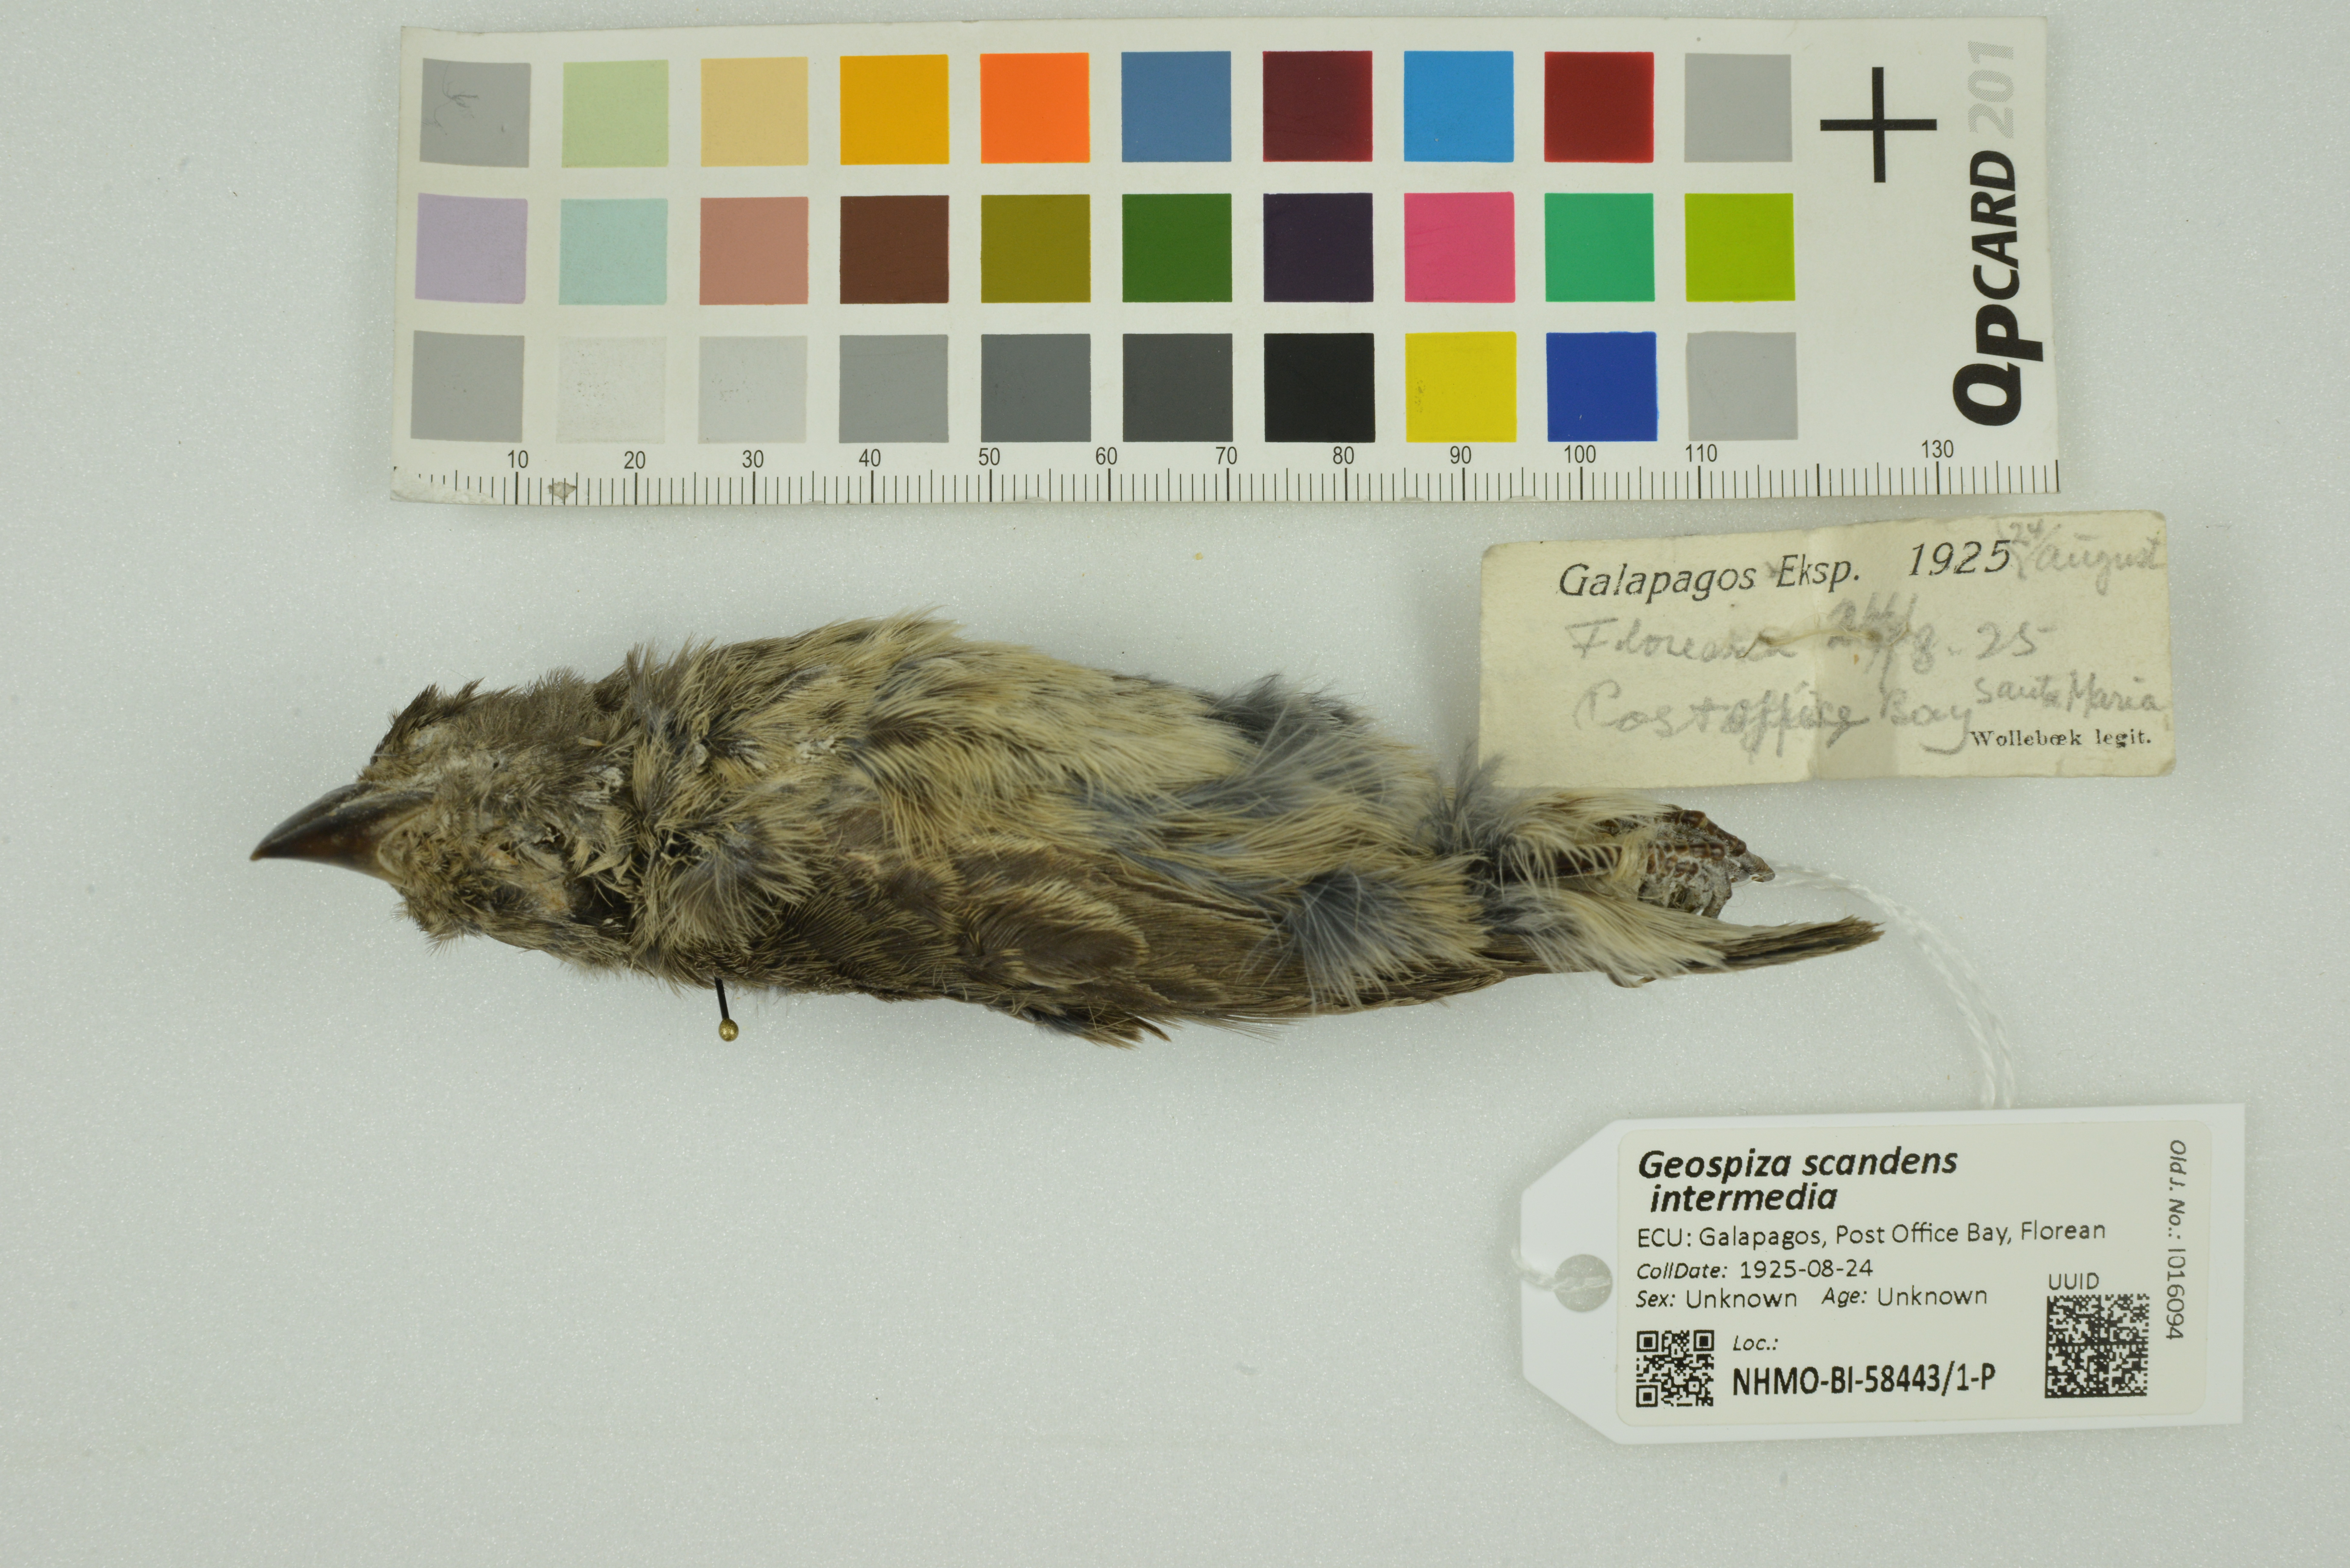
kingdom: Animalia
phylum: Chordata
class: Aves
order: Passeriformes
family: Thraupidae
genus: Geospiza
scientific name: Geospiza scandens
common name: Common cactus-finch
